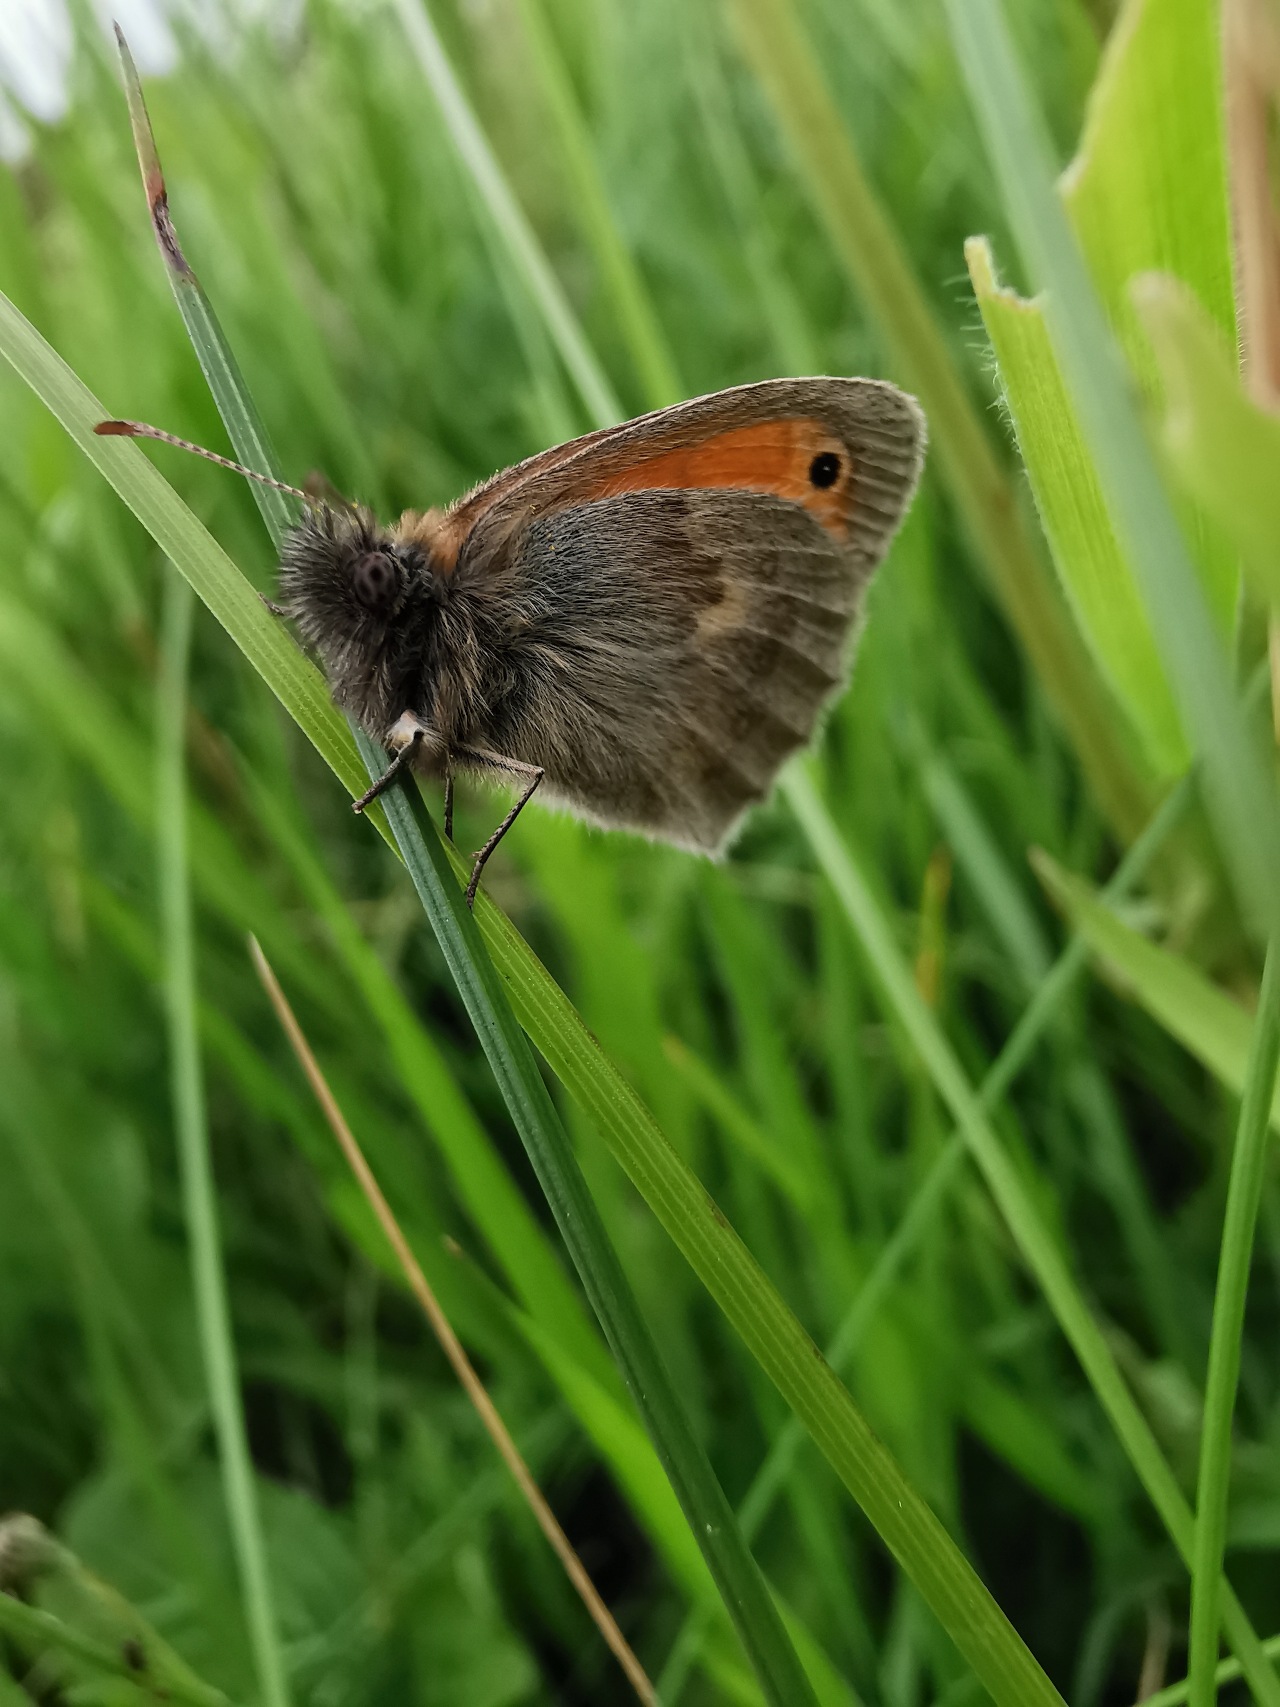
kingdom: Animalia
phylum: Arthropoda
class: Insecta
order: Lepidoptera
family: Nymphalidae
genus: Coenonympha
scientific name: Coenonympha pamphilus
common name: Okkergul randøje
